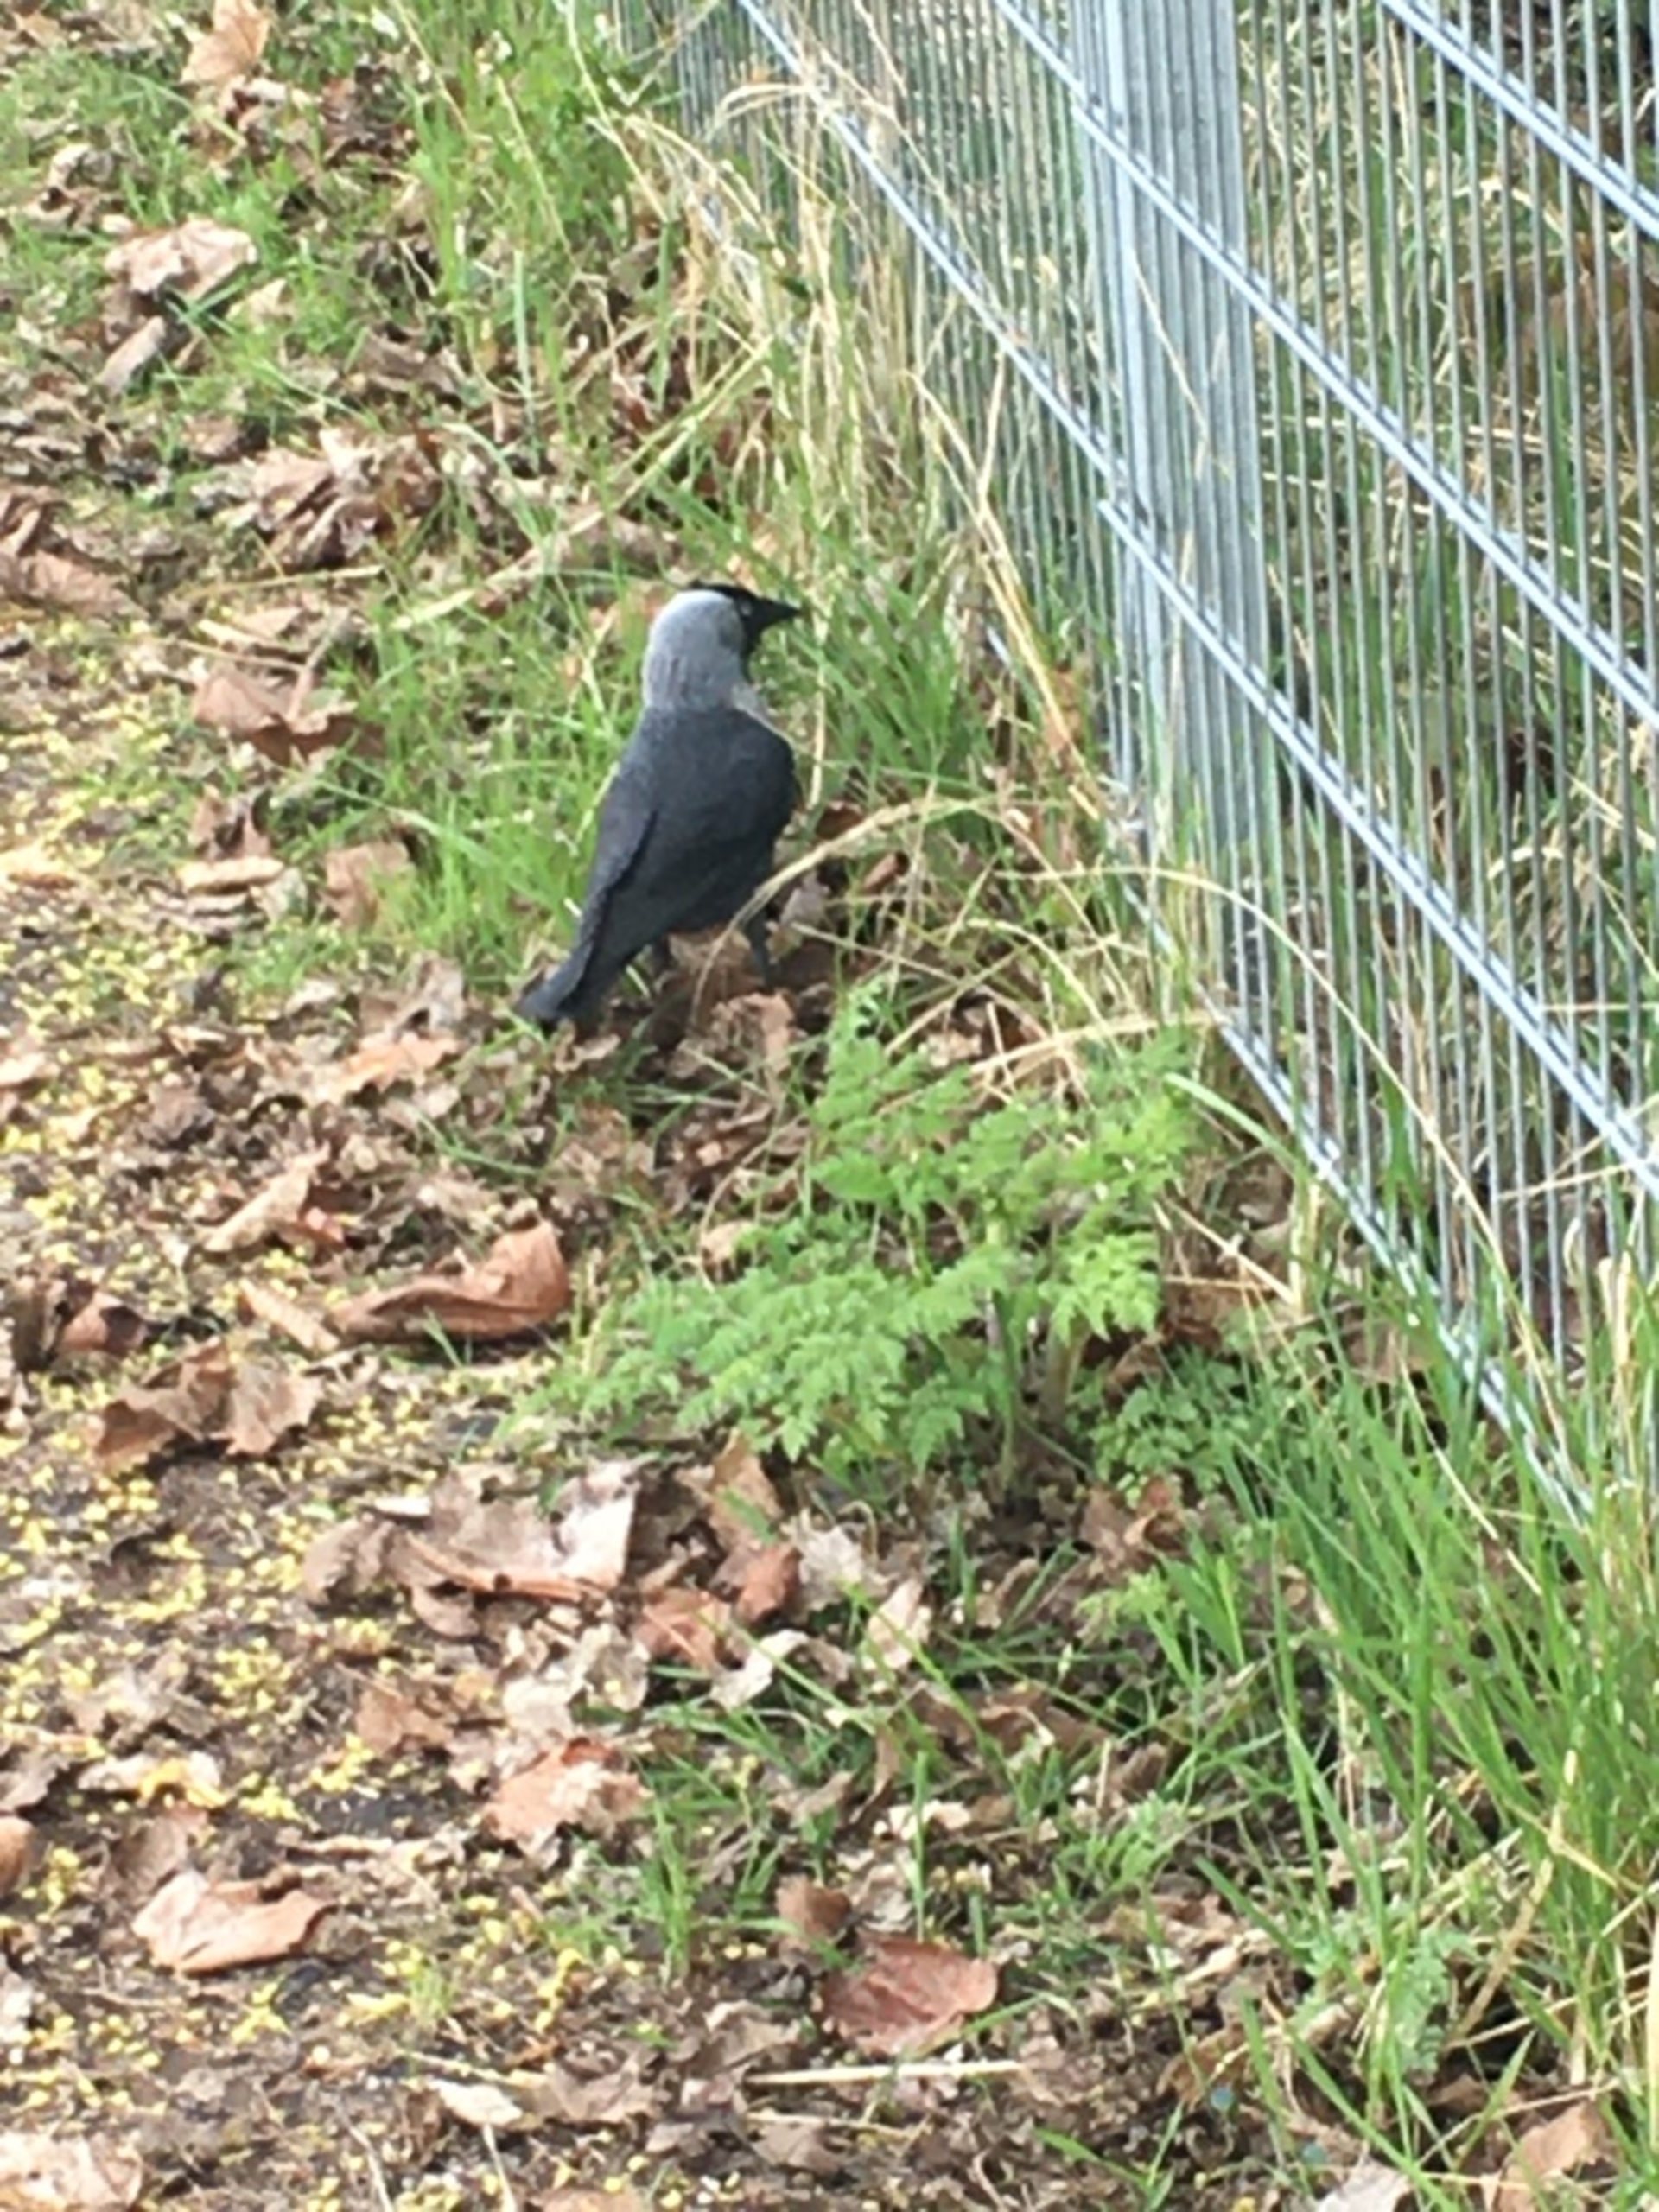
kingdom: Animalia
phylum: Chordata
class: Aves
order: Passeriformes
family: Corvidae
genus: Coloeus
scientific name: Coloeus monedula
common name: Allike
